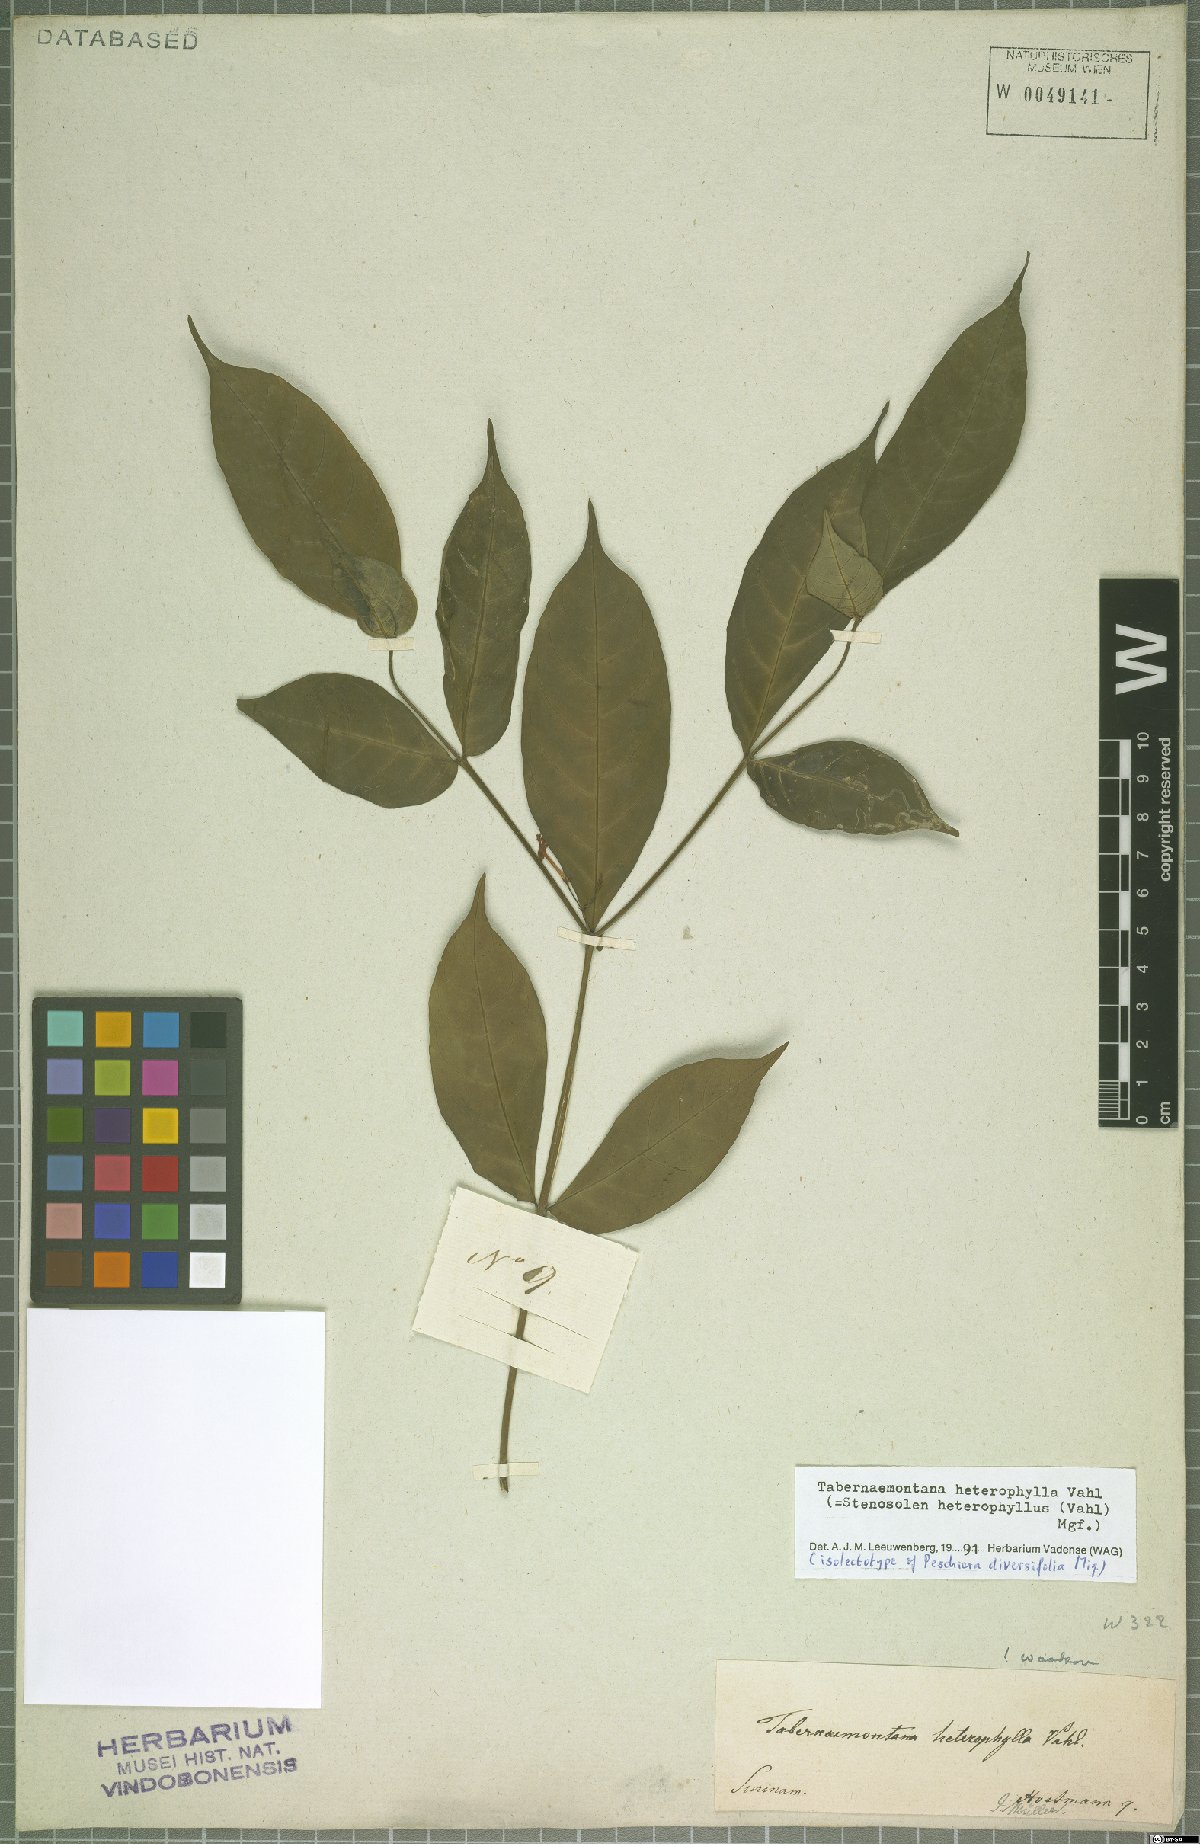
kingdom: Plantae
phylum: Tracheophyta
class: Magnoliopsida
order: Gentianales
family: Apocynaceae
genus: Tabernaemontana
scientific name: Tabernaemontana heterophylla
